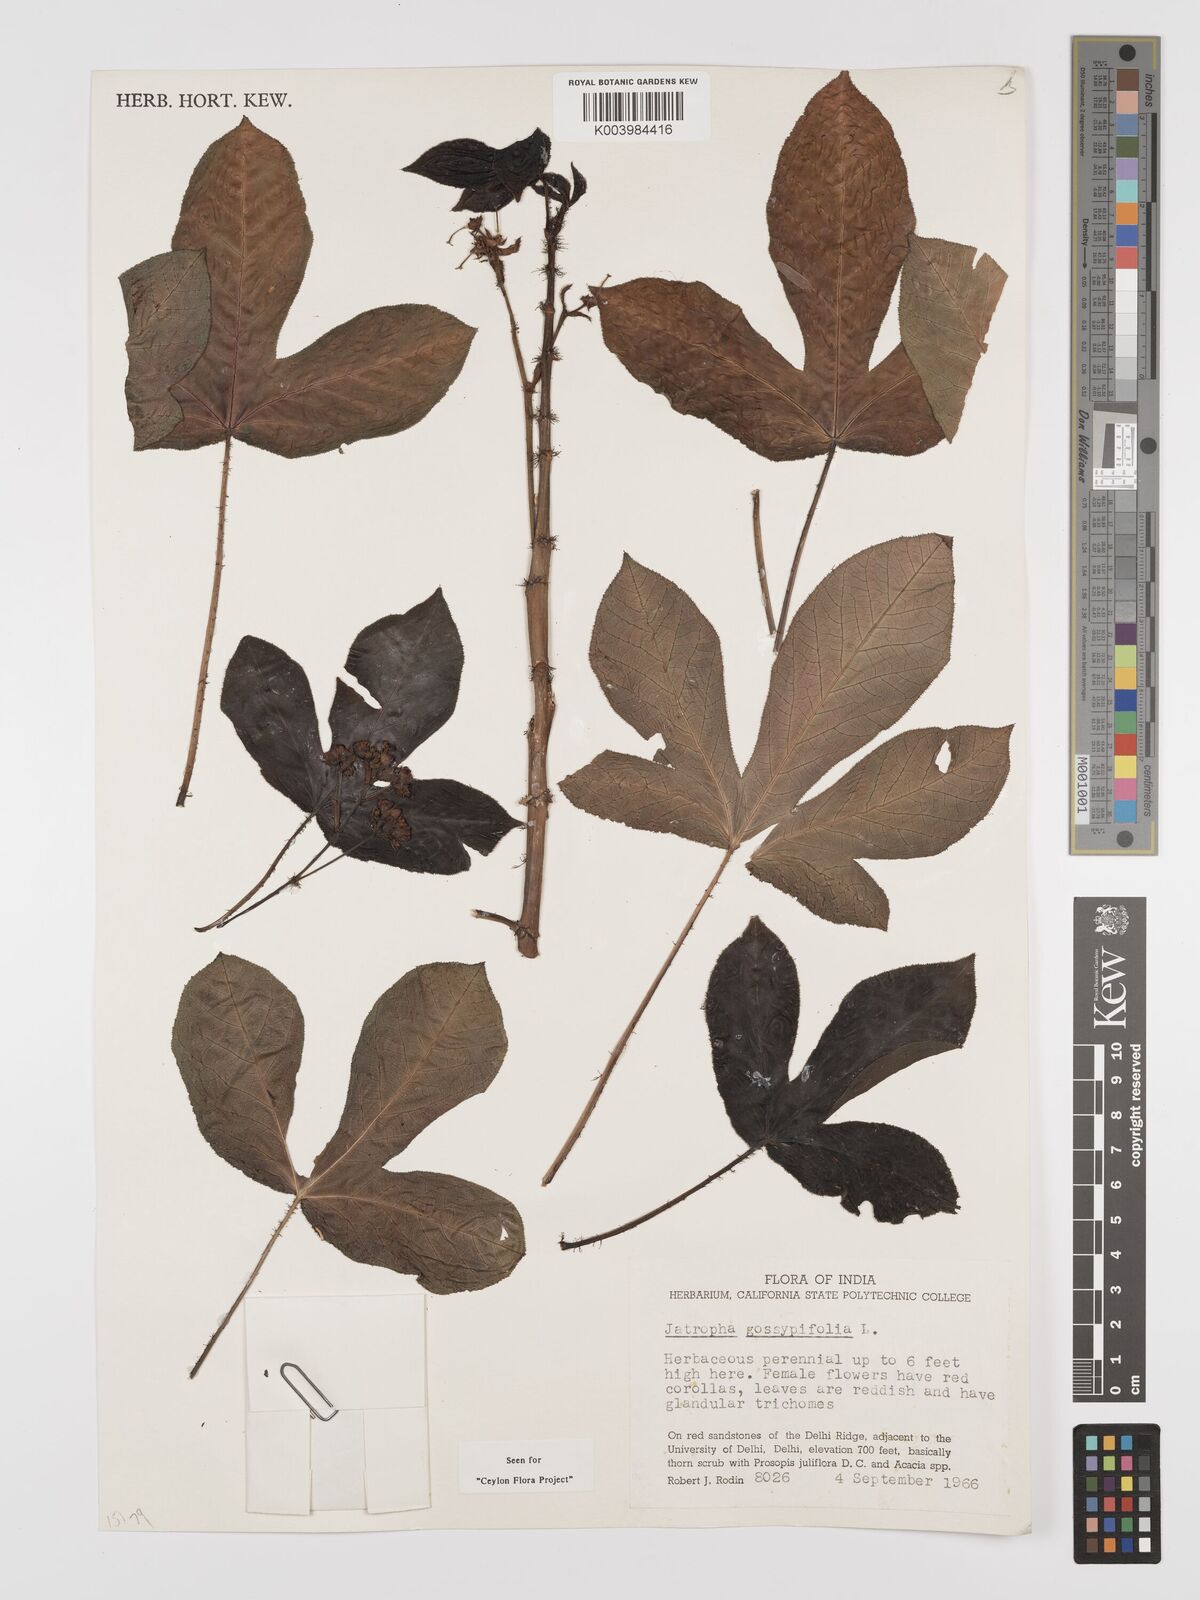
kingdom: Plantae
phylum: Tracheophyta
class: Magnoliopsida
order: Malpighiales
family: Euphorbiaceae
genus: Jatropha
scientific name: Jatropha gossypiifolia
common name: Bellyache bush
